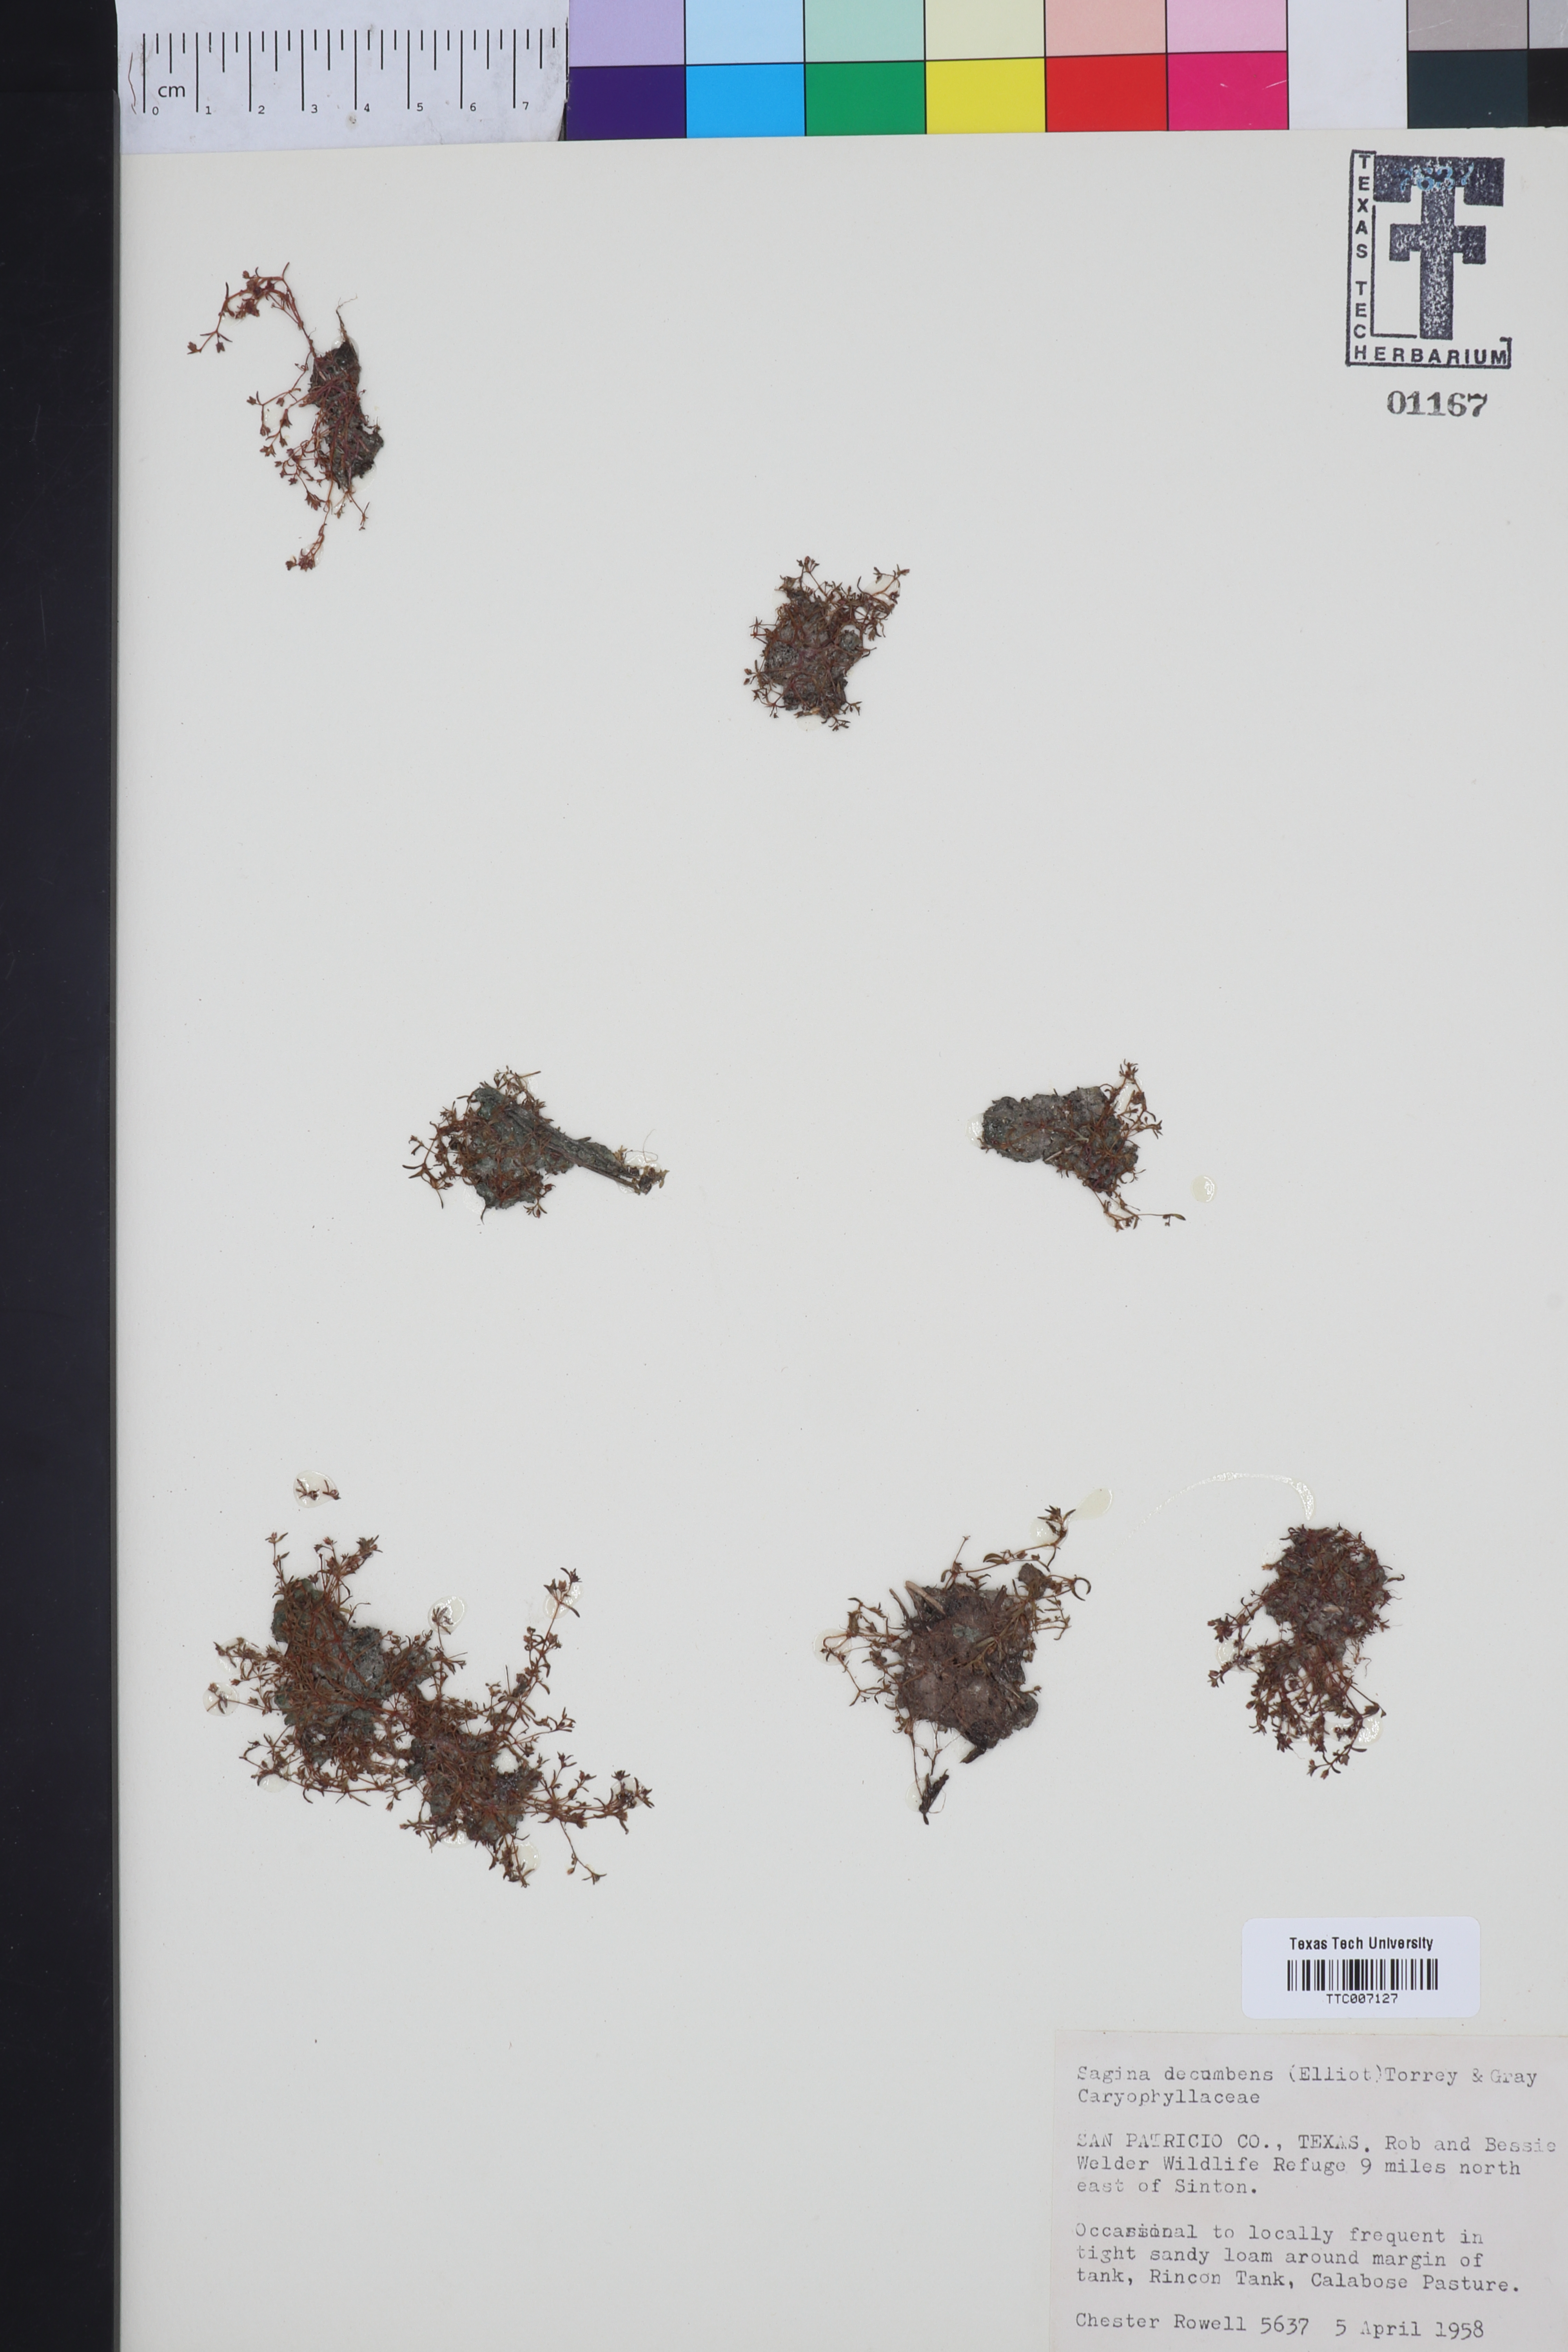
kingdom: Plantae
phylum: Tracheophyta
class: Magnoliopsida
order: Caryophyllales
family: Caryophyllaceae
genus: Sagina
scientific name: Sagina decumbens
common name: Decumbent pearlwort
